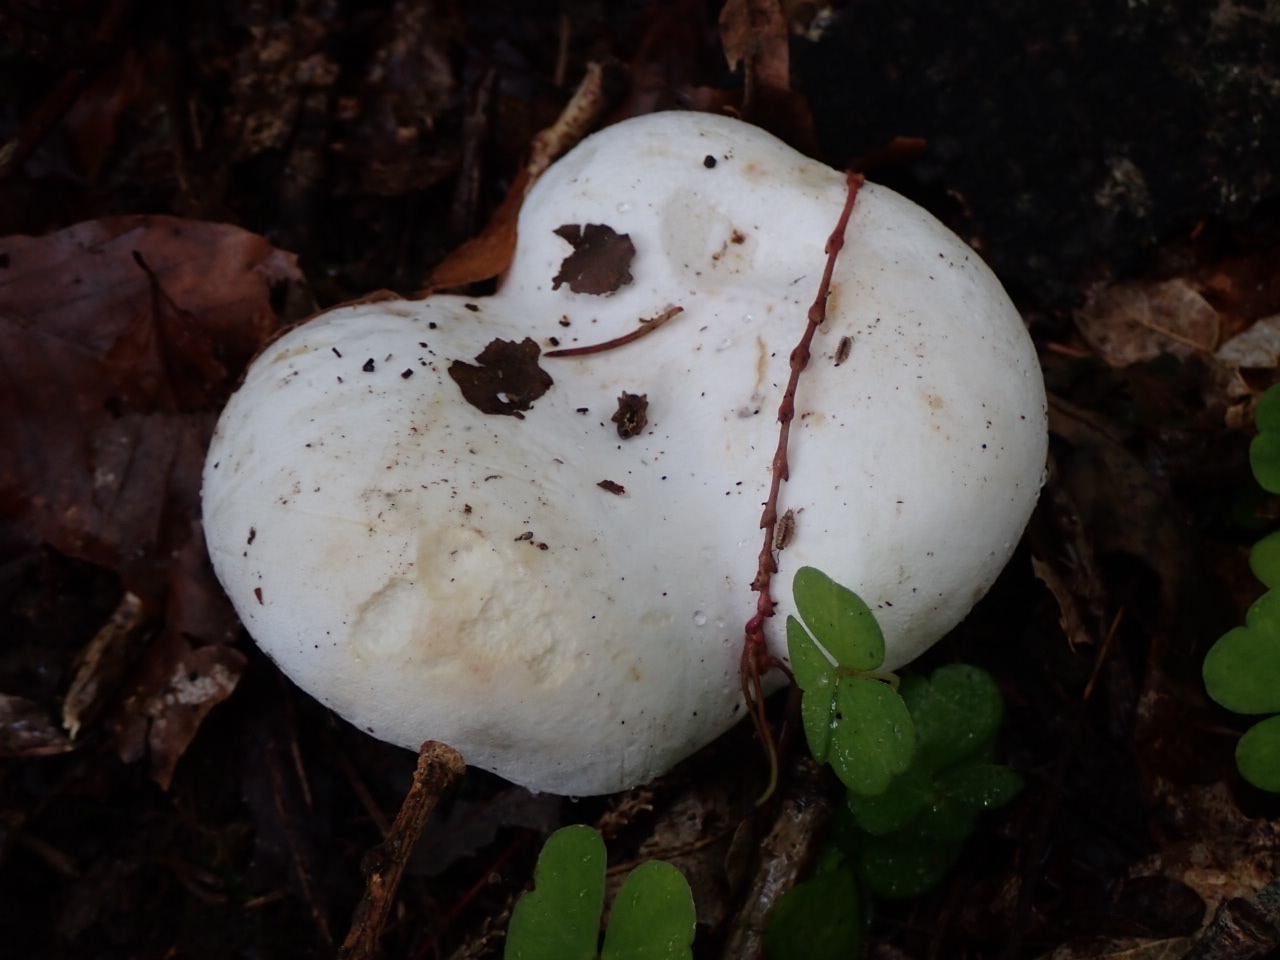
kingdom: Fungi
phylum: Basidiomycota
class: Agaricomycetes
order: Russulales
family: Russulaceae
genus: Lactifluus
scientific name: Lactifluus
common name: mælkehat
